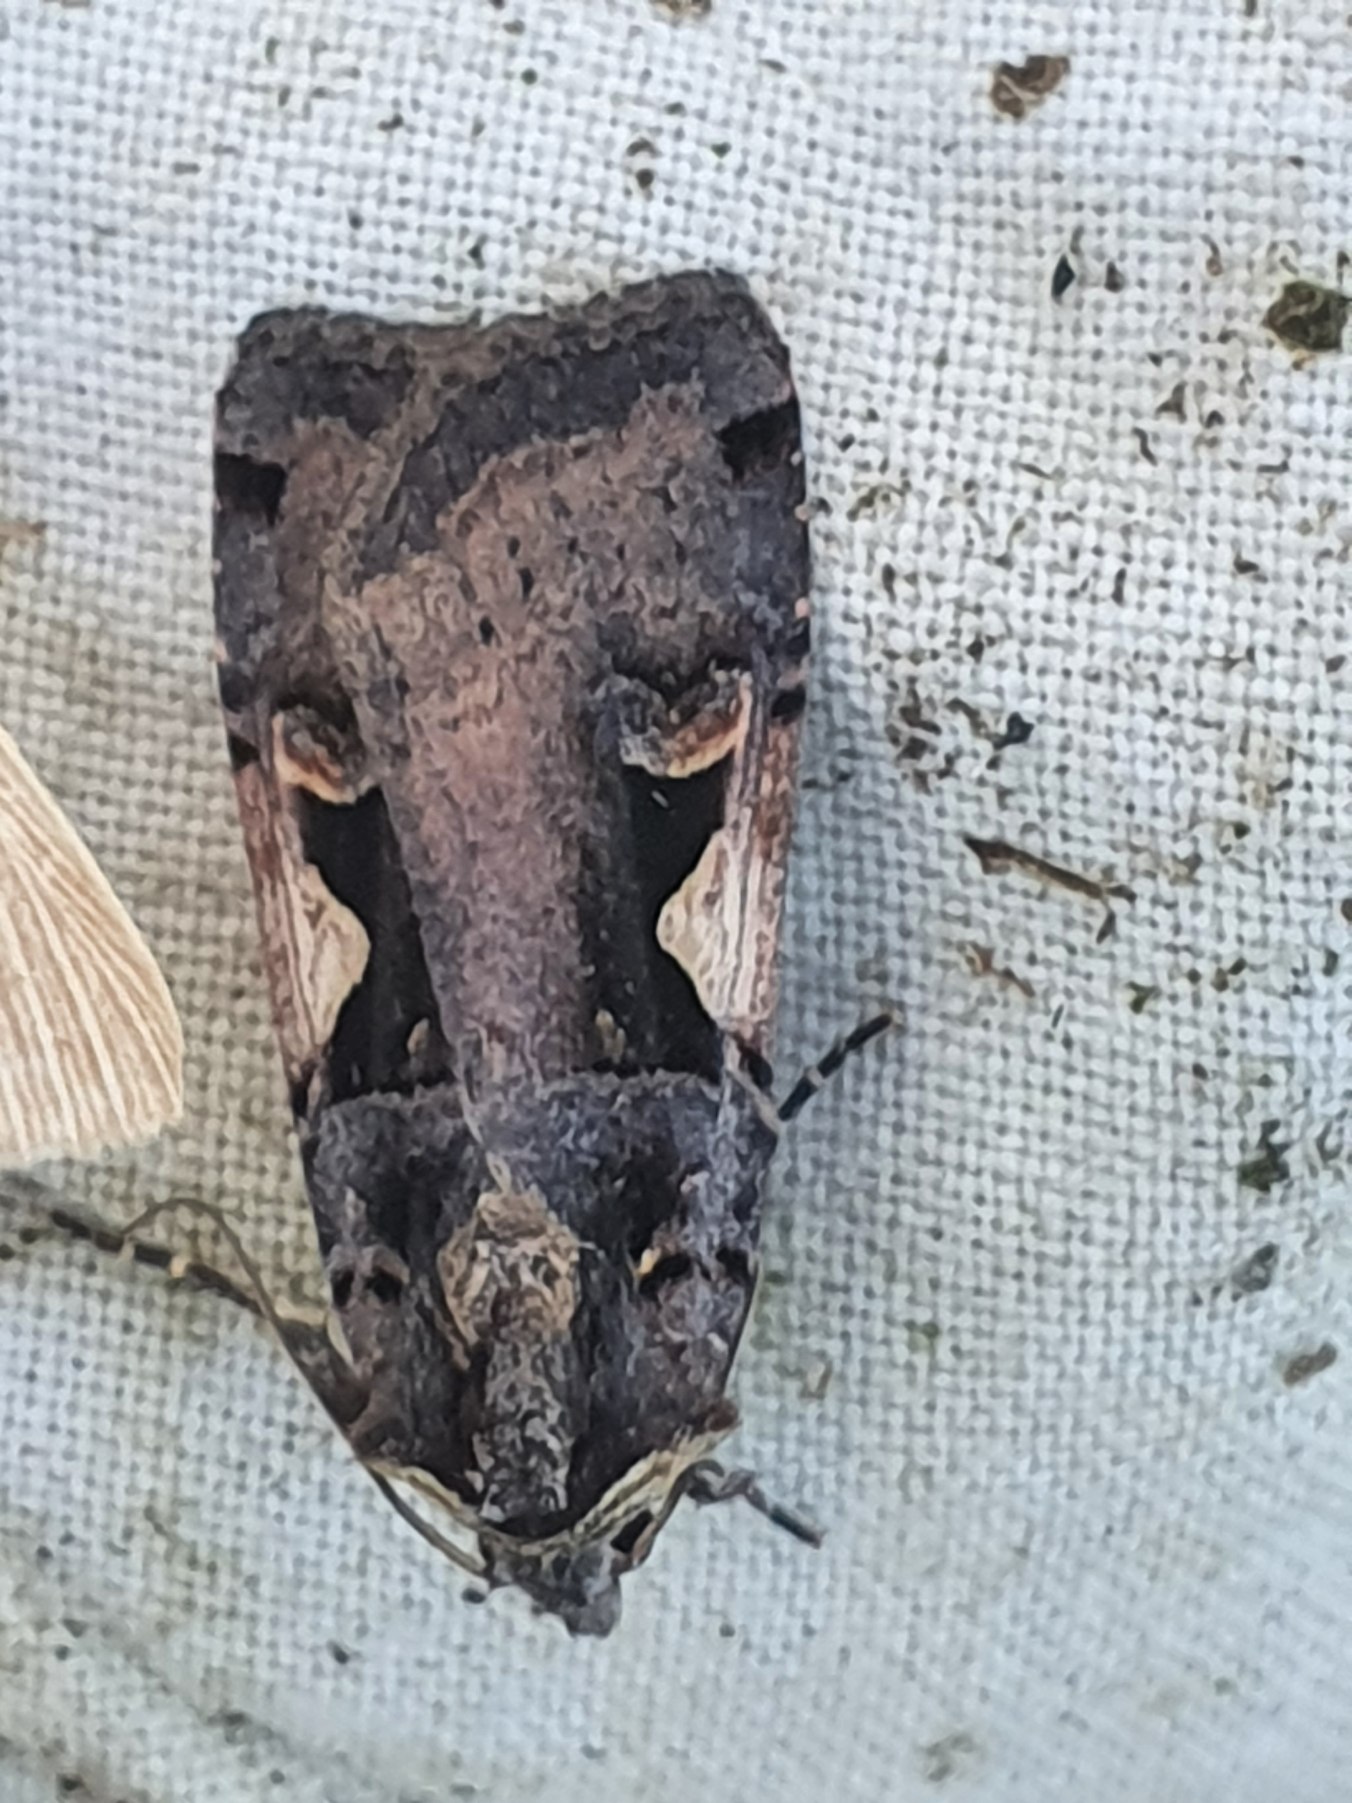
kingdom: Animalia
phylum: Arthropoda
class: Insecta
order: Lepidoptera
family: Noctuidae
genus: Xestia
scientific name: Xestia c-nigrum
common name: Det sorte c
